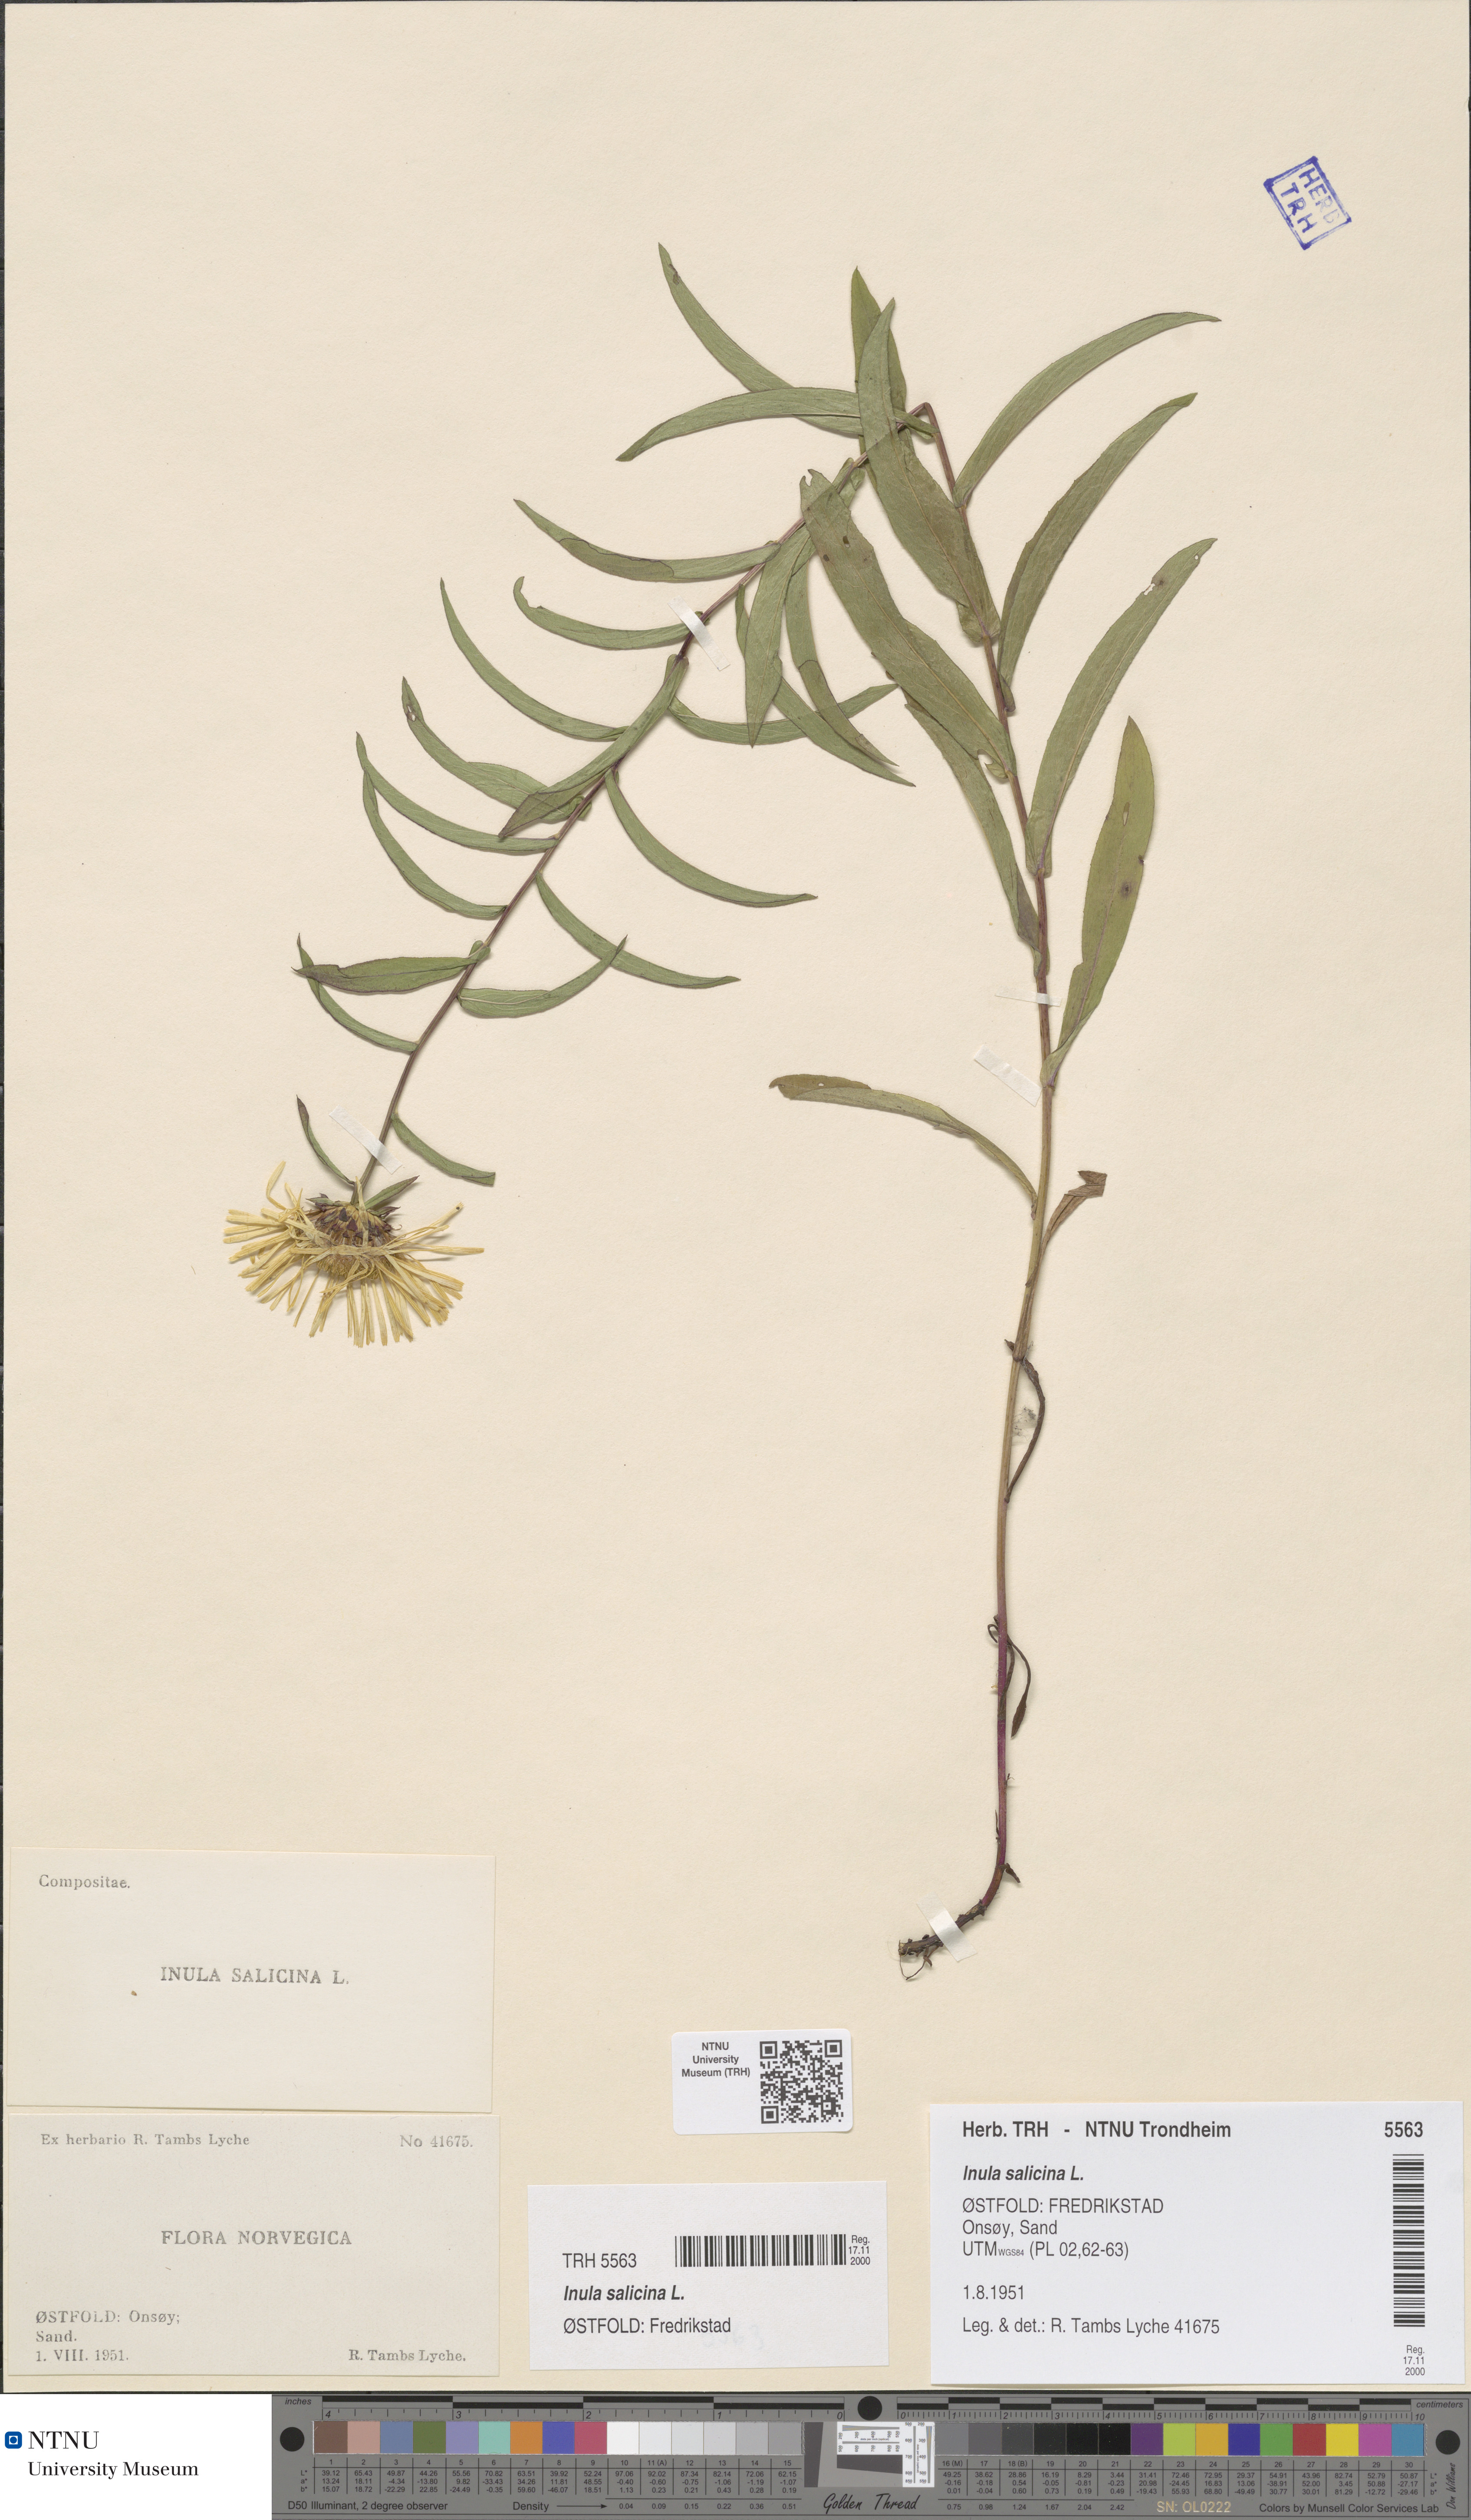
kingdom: Plantae
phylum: Tracheophyta
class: Magnoliopsida
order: Asterales
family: Asteraceae
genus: Pentanema
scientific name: Pentanema salicinum
